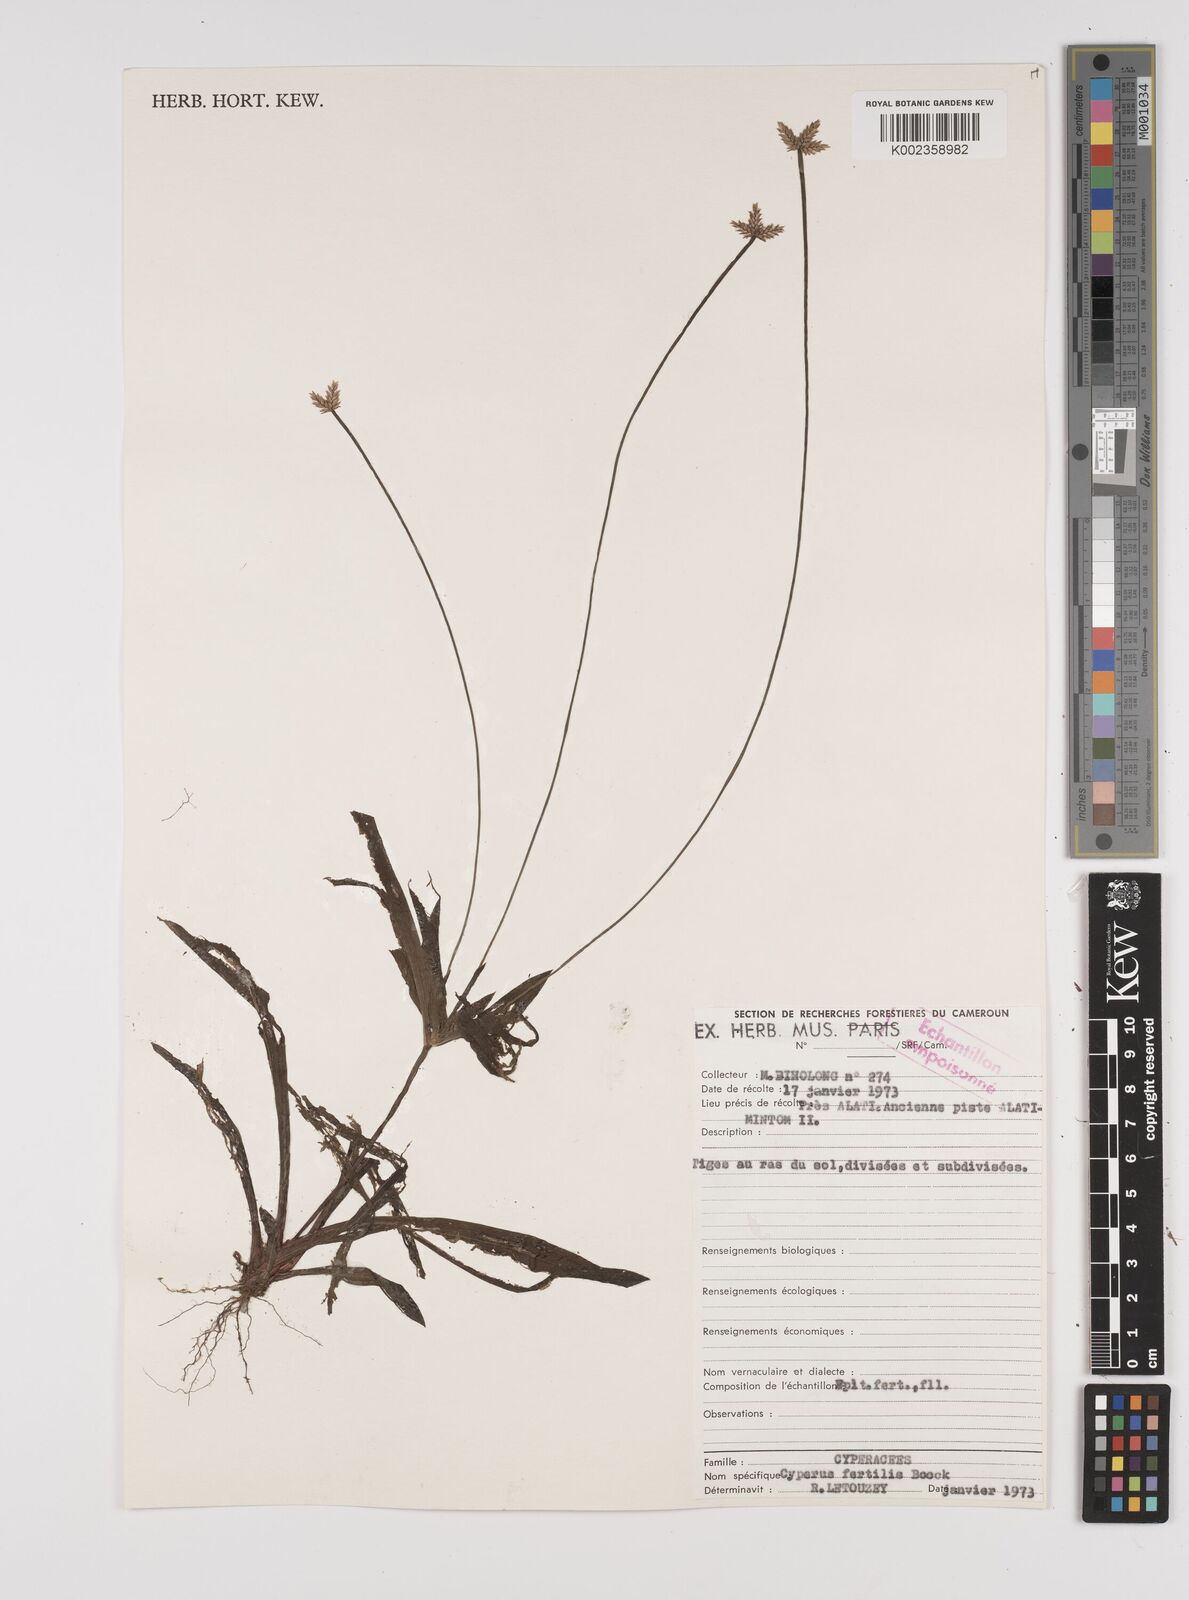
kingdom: Plantae
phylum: Tracheophyta
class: Liliopsida
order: Poales
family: Cyperaceae
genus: Cyperus
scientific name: Cyperus fertilis
